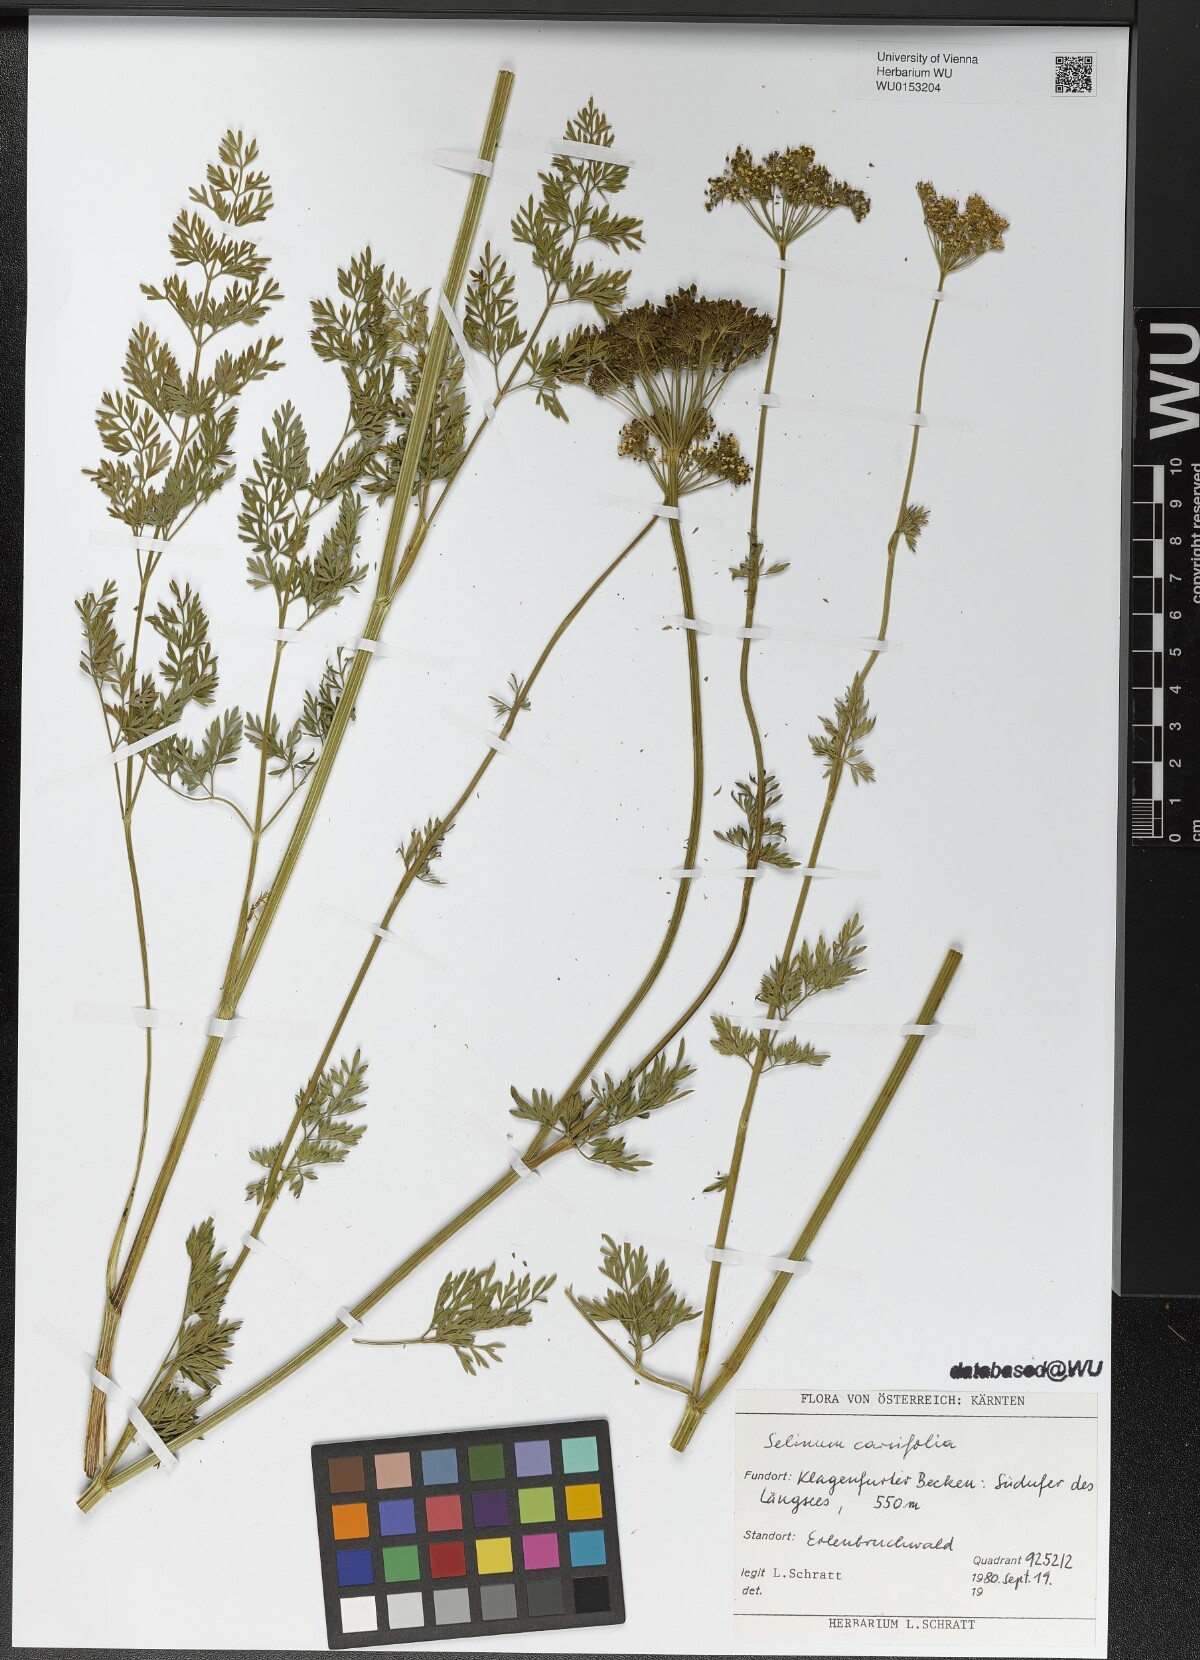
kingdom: Plantae
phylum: Tracheophyta
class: Magnoliopsida
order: Apiales
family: Apiaceae
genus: Selinum
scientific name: Selinum carvifolia
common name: Cambridge milk-parsley
